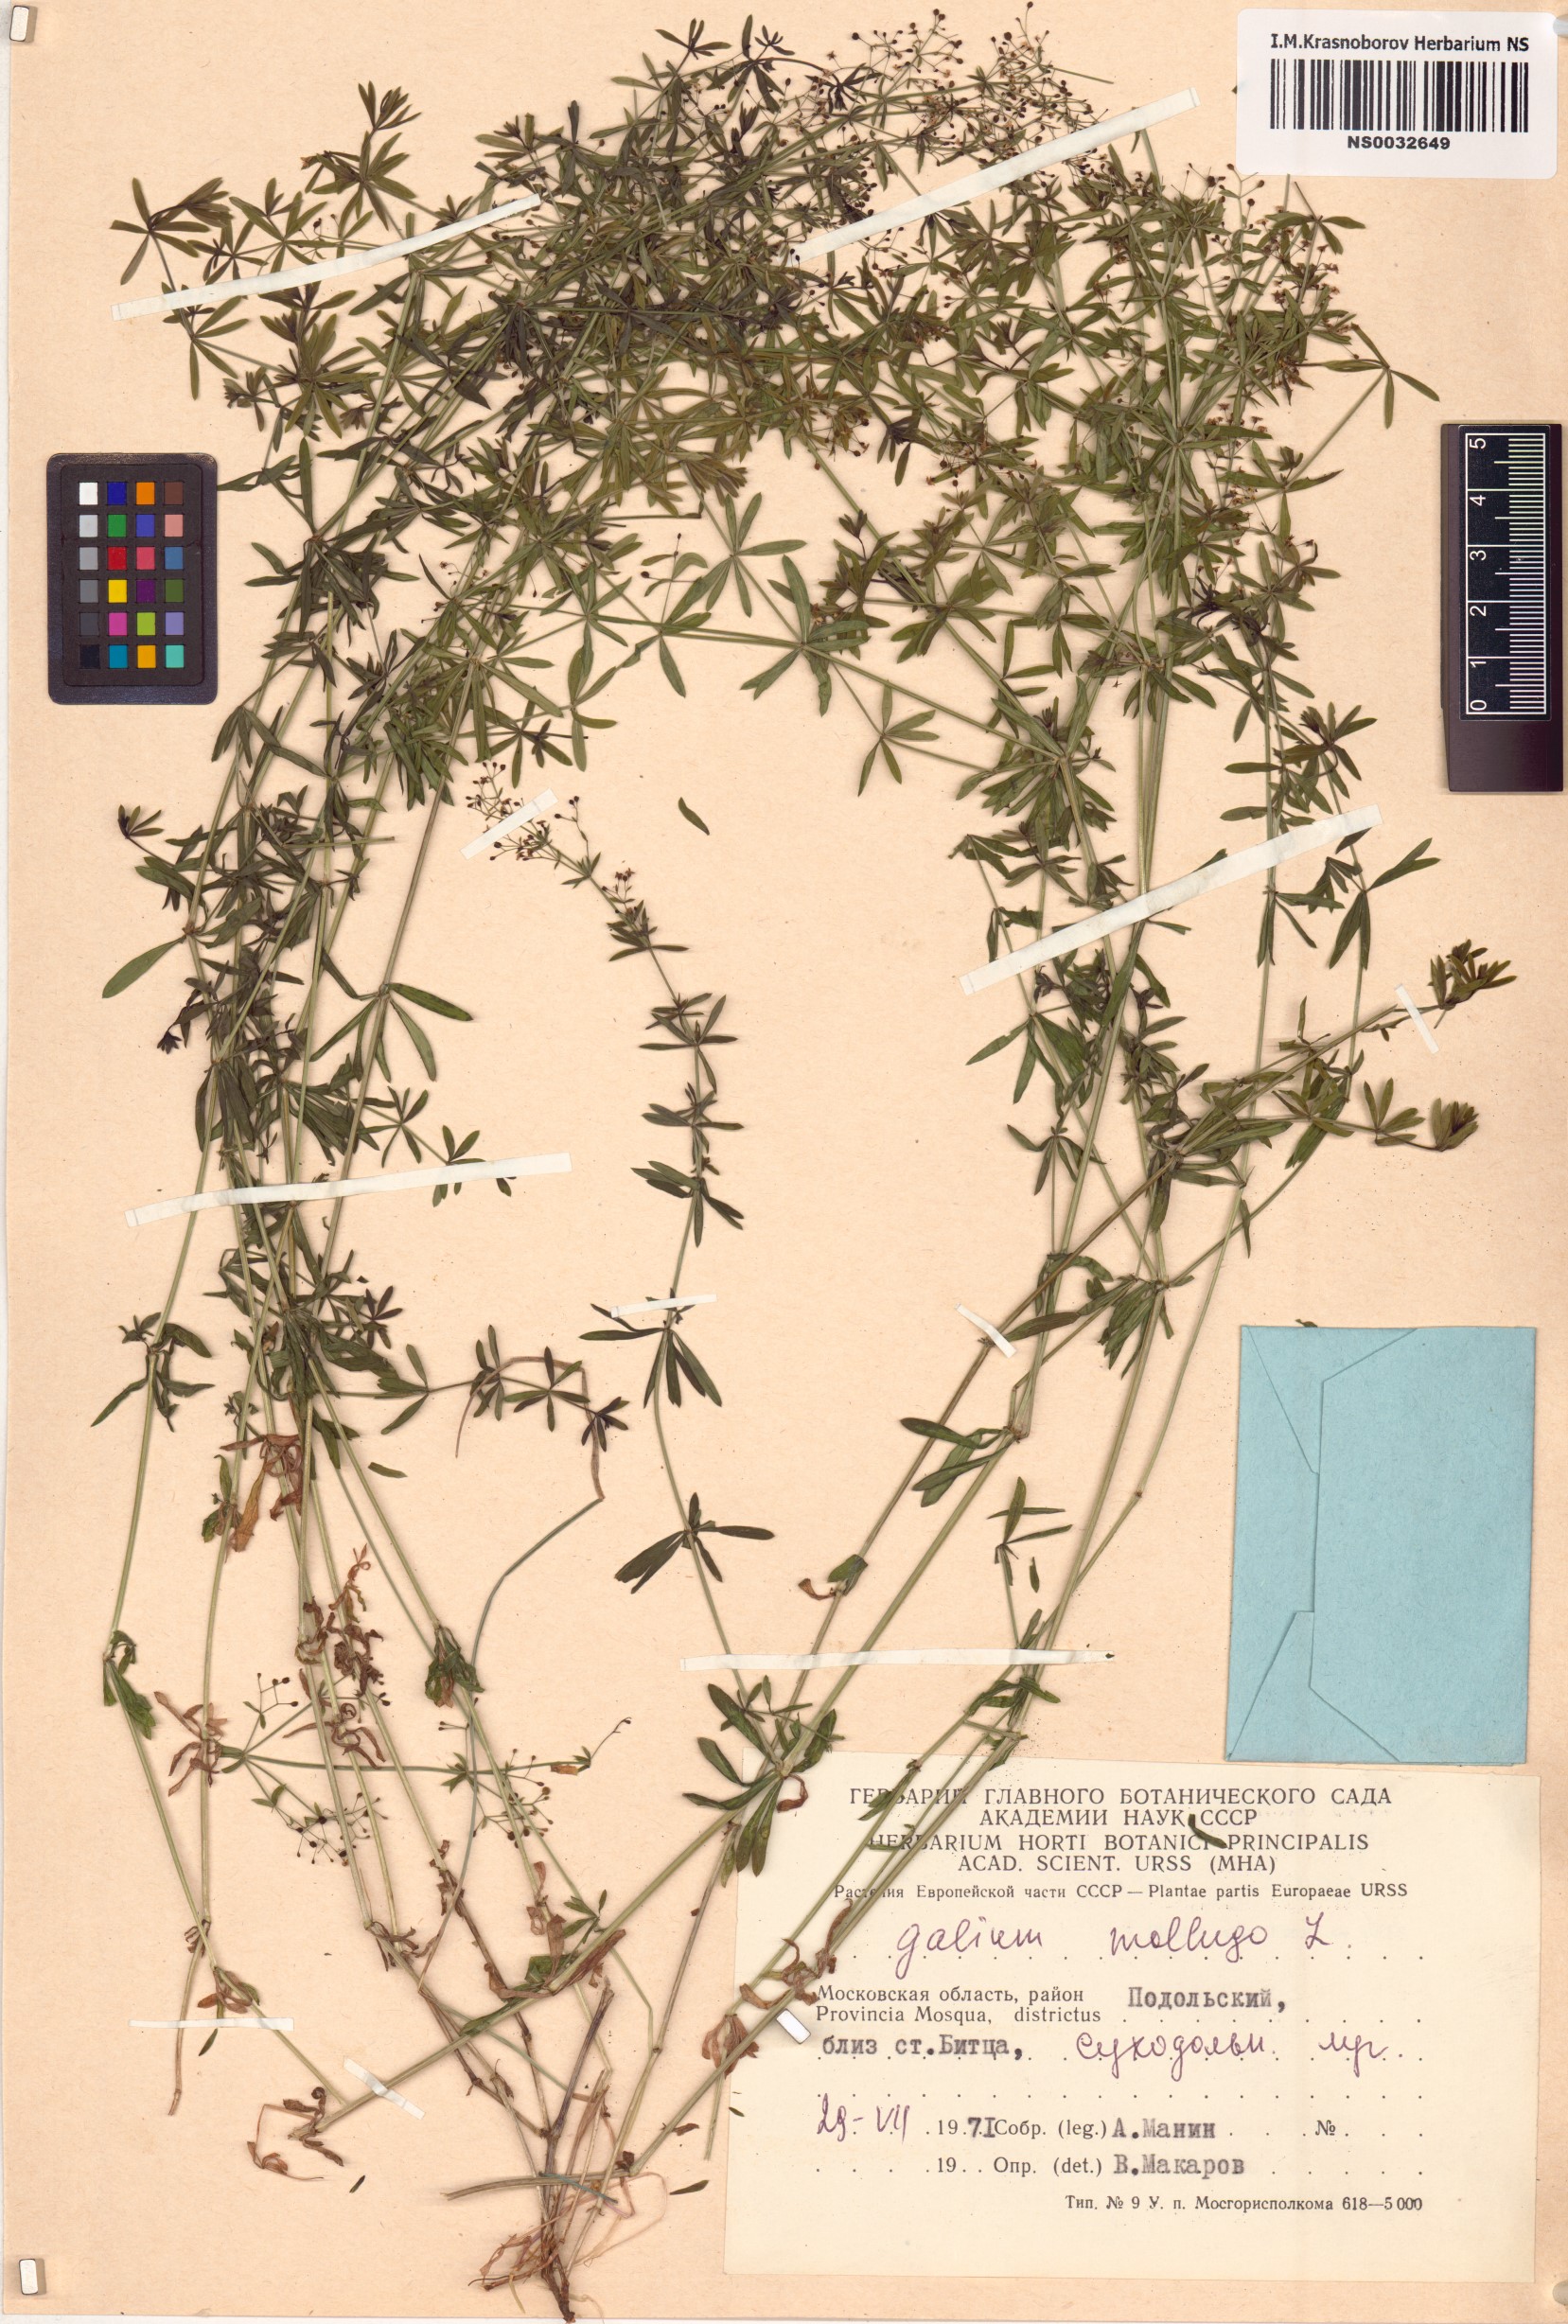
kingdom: Plantae
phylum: Tracheophyta
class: Magnoliopsida
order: Gentianales
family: Rubiaceae
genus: Galium
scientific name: Galium mollugo
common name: Hedge bedstraw
